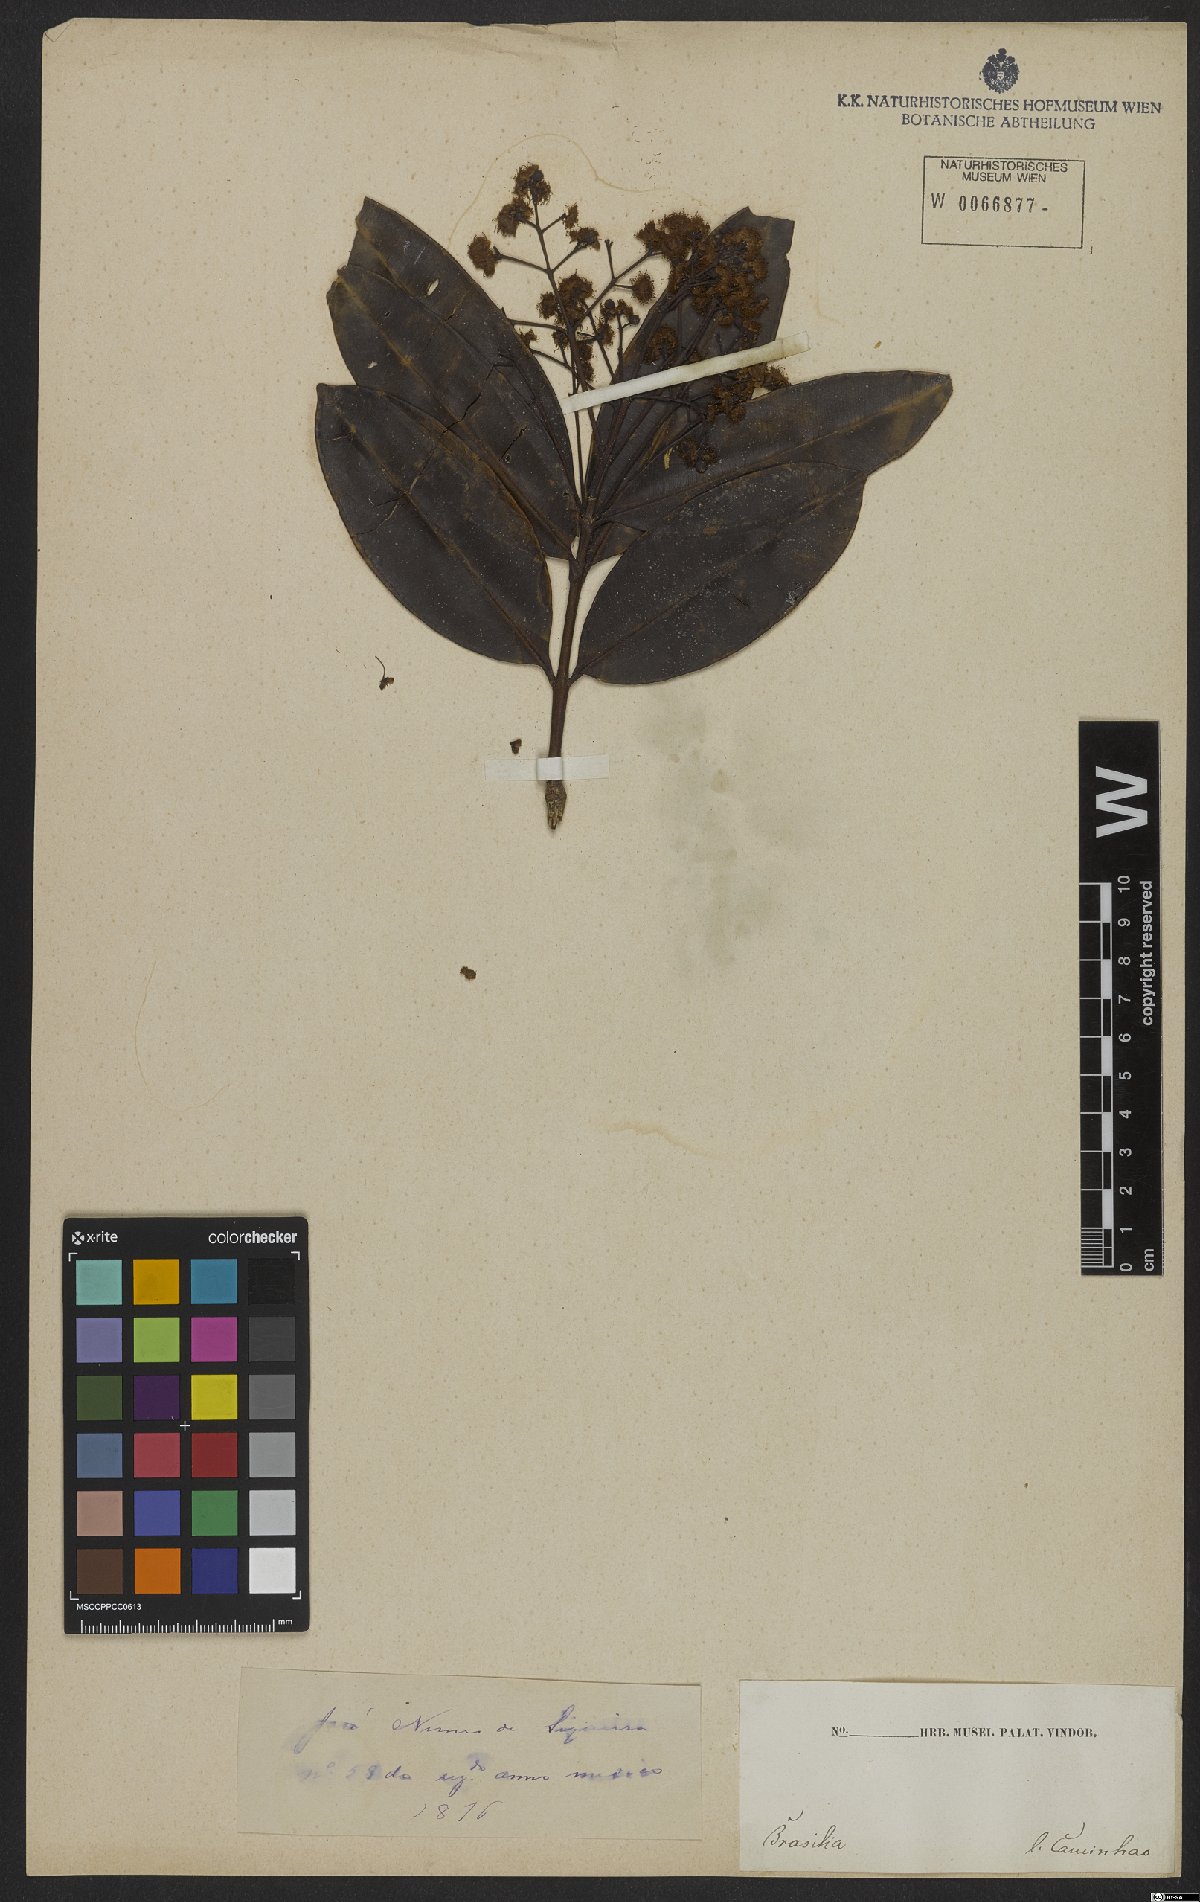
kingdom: Plantae
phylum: Tracheophyta
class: Magnoliopsida
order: Myrtales
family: Myrtaceae
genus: Myrcia
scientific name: Myrcia
